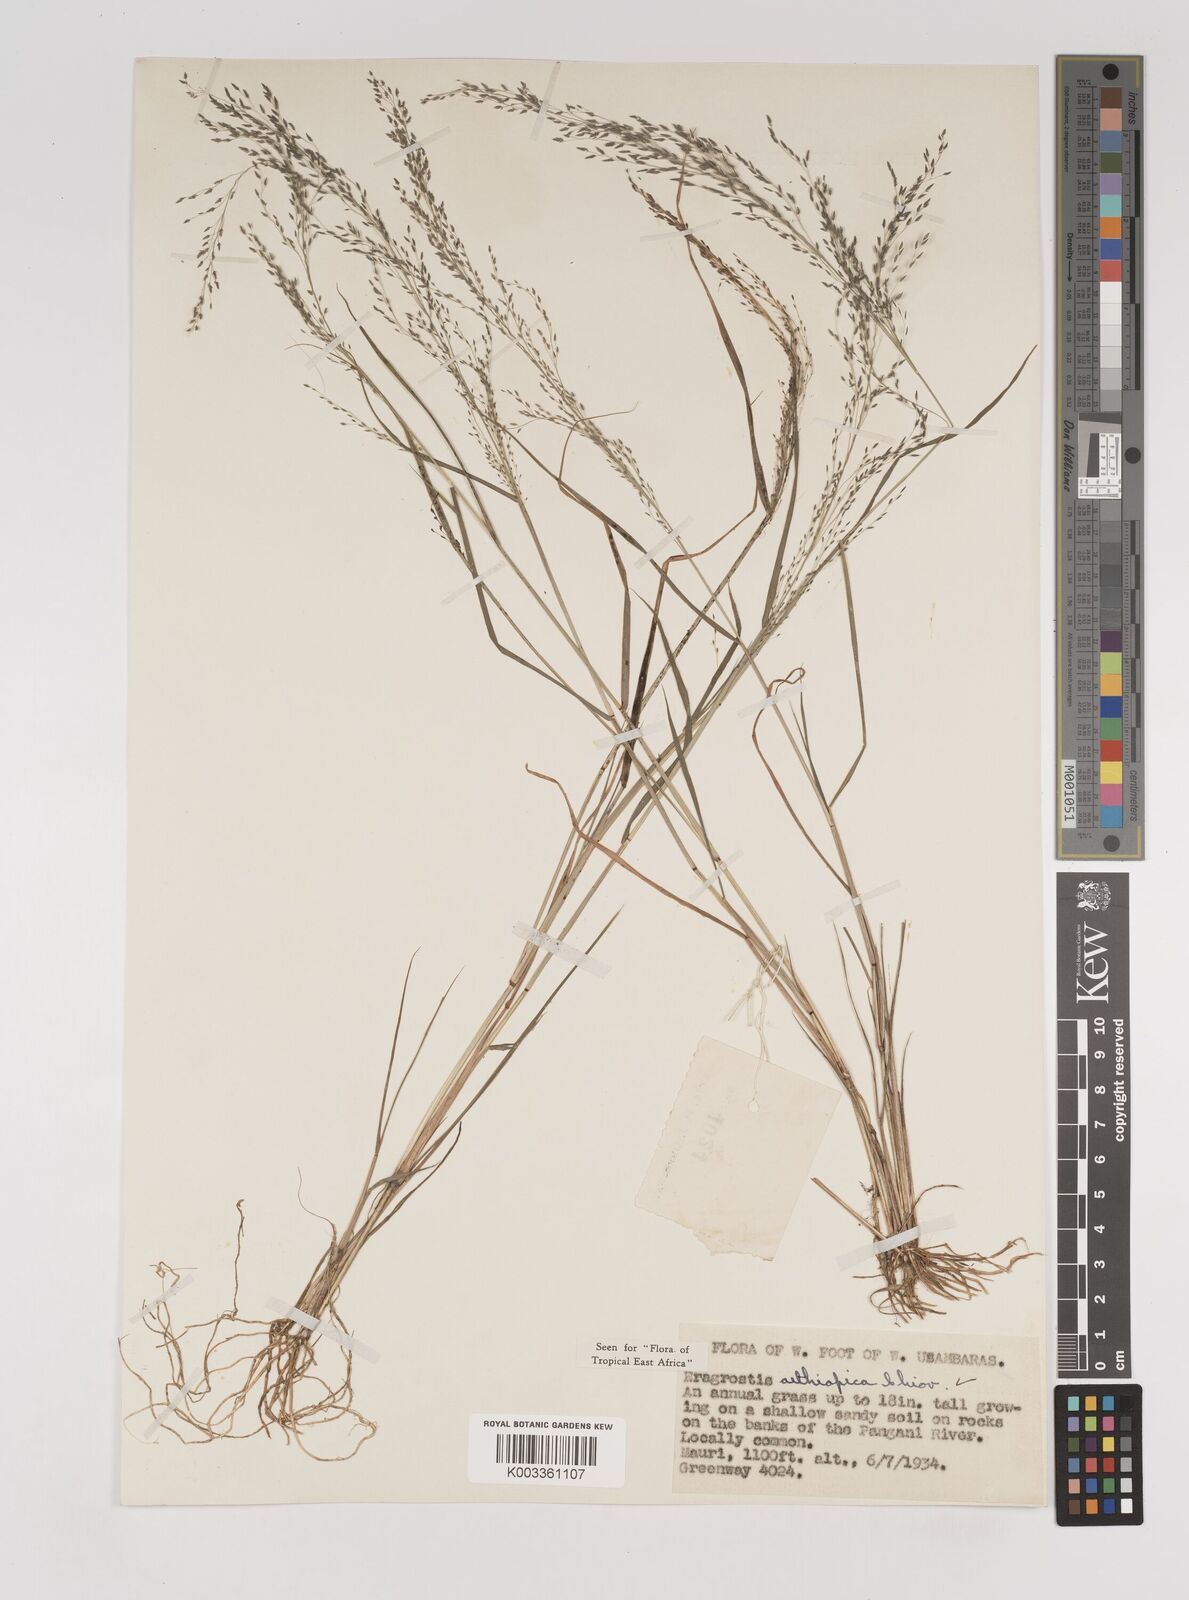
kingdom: Plantae
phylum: Tracheophyta
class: Liliopsida
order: Poales
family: Poaceae
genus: Eragrostis
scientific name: Eragrostis aethiopica
